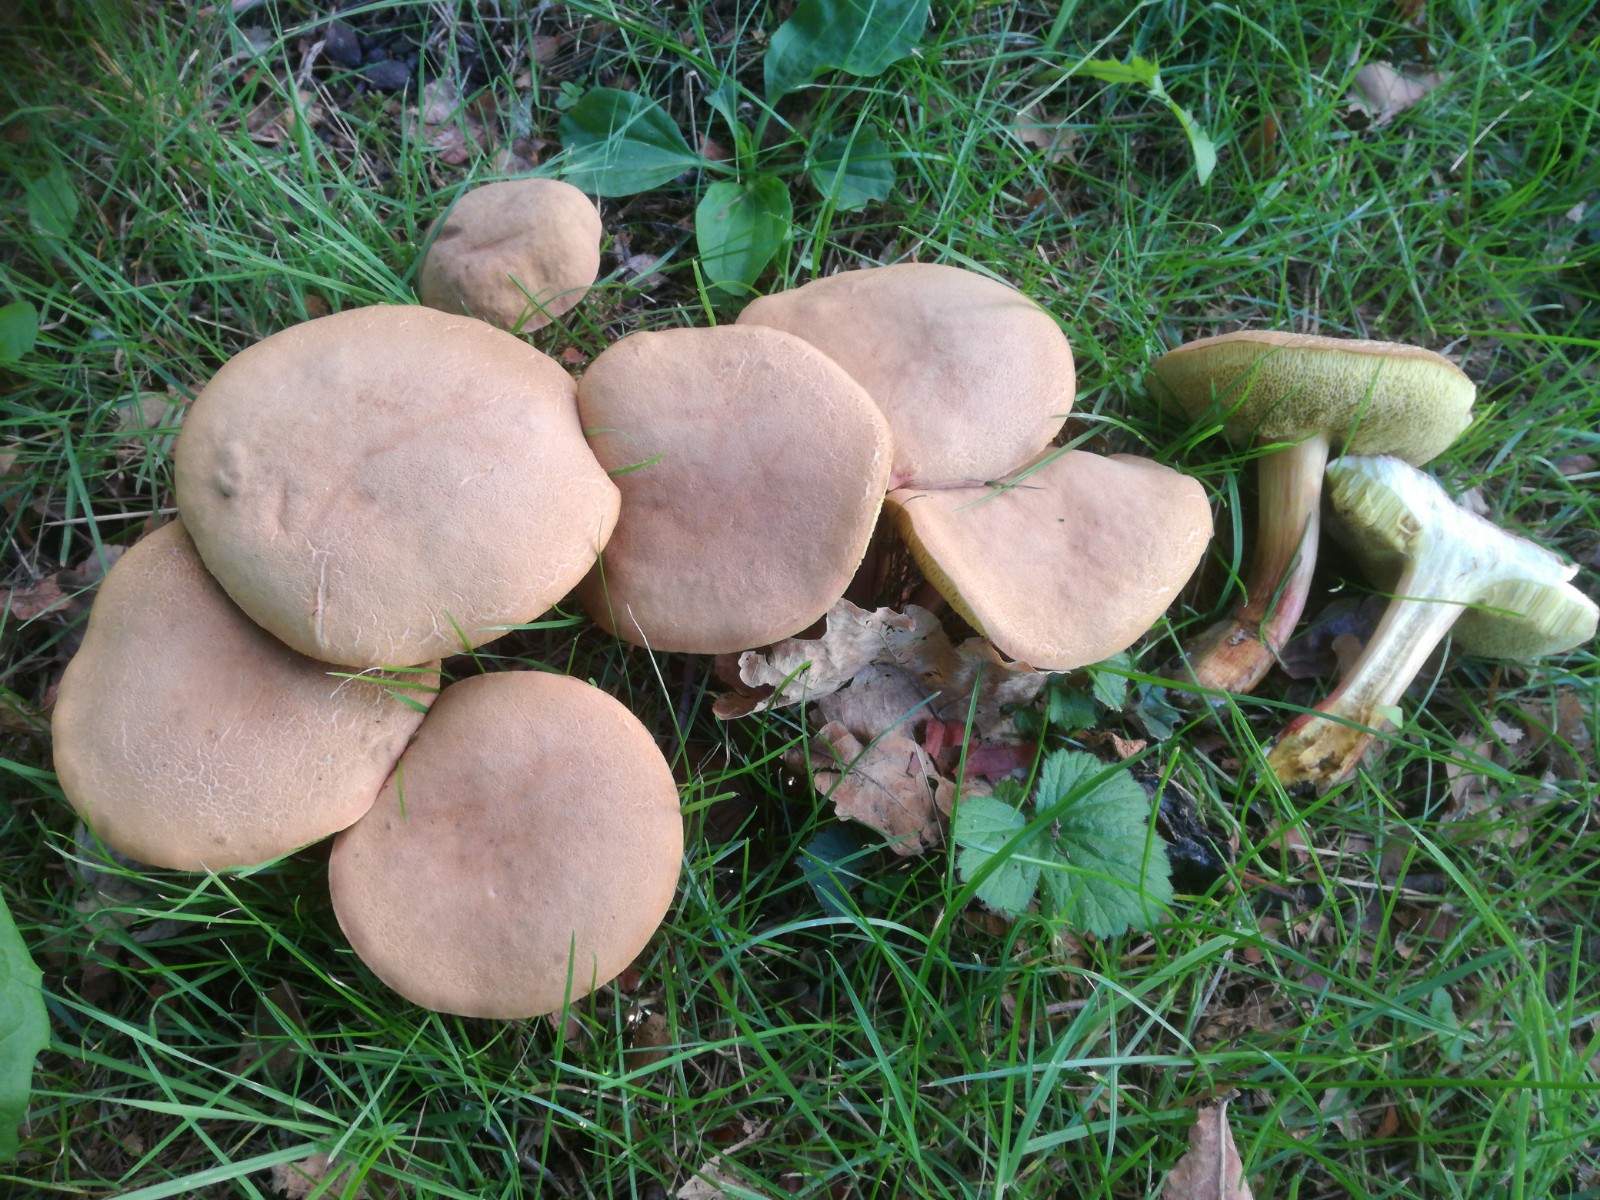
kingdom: Fungi
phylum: Basidiomycota
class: Agaricomycetes
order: Boletales
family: Boletaceae
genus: Hortiboletus
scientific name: Hortiboletus engelii
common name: fersken-rørhat
